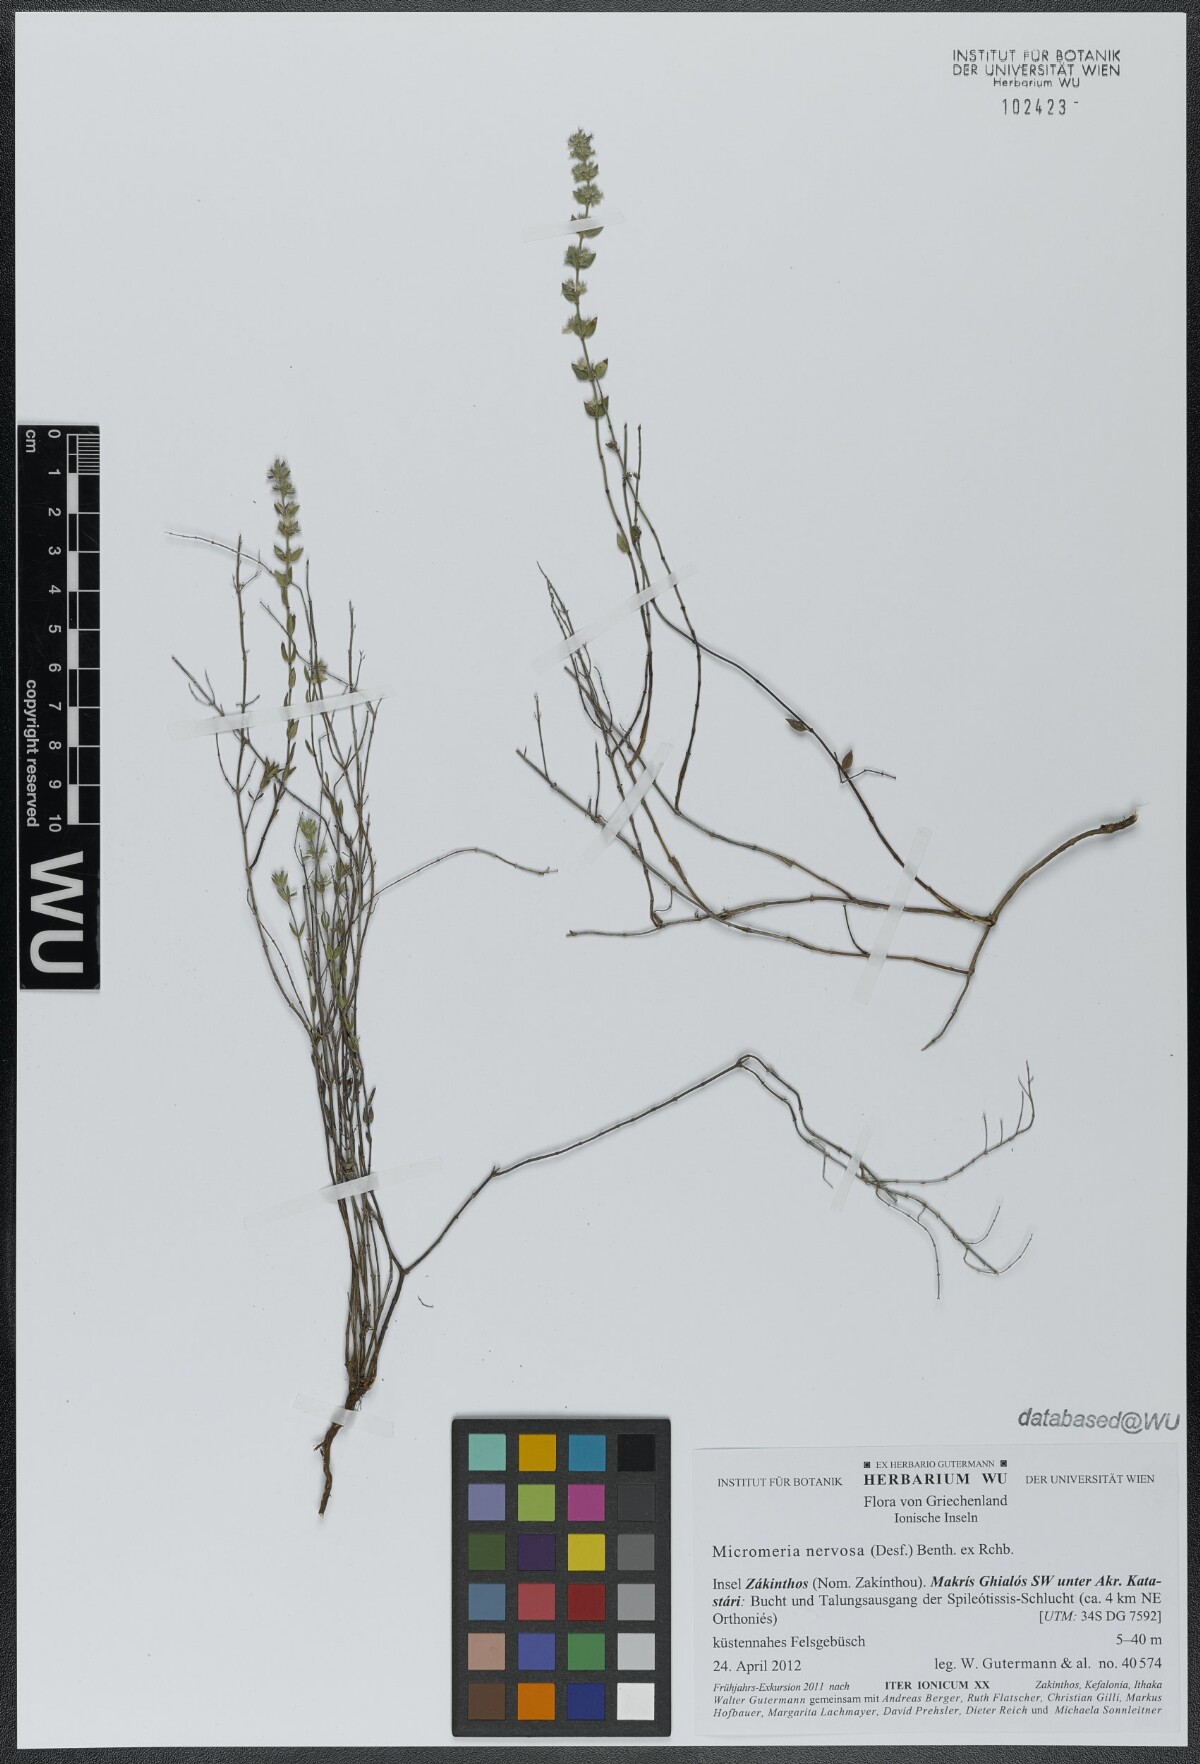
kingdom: Plantae
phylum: Tracheophyta
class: Magnoliopsida
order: Lamiales
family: Lamiaceae
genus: Micromeria
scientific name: Micromeria nervosa
